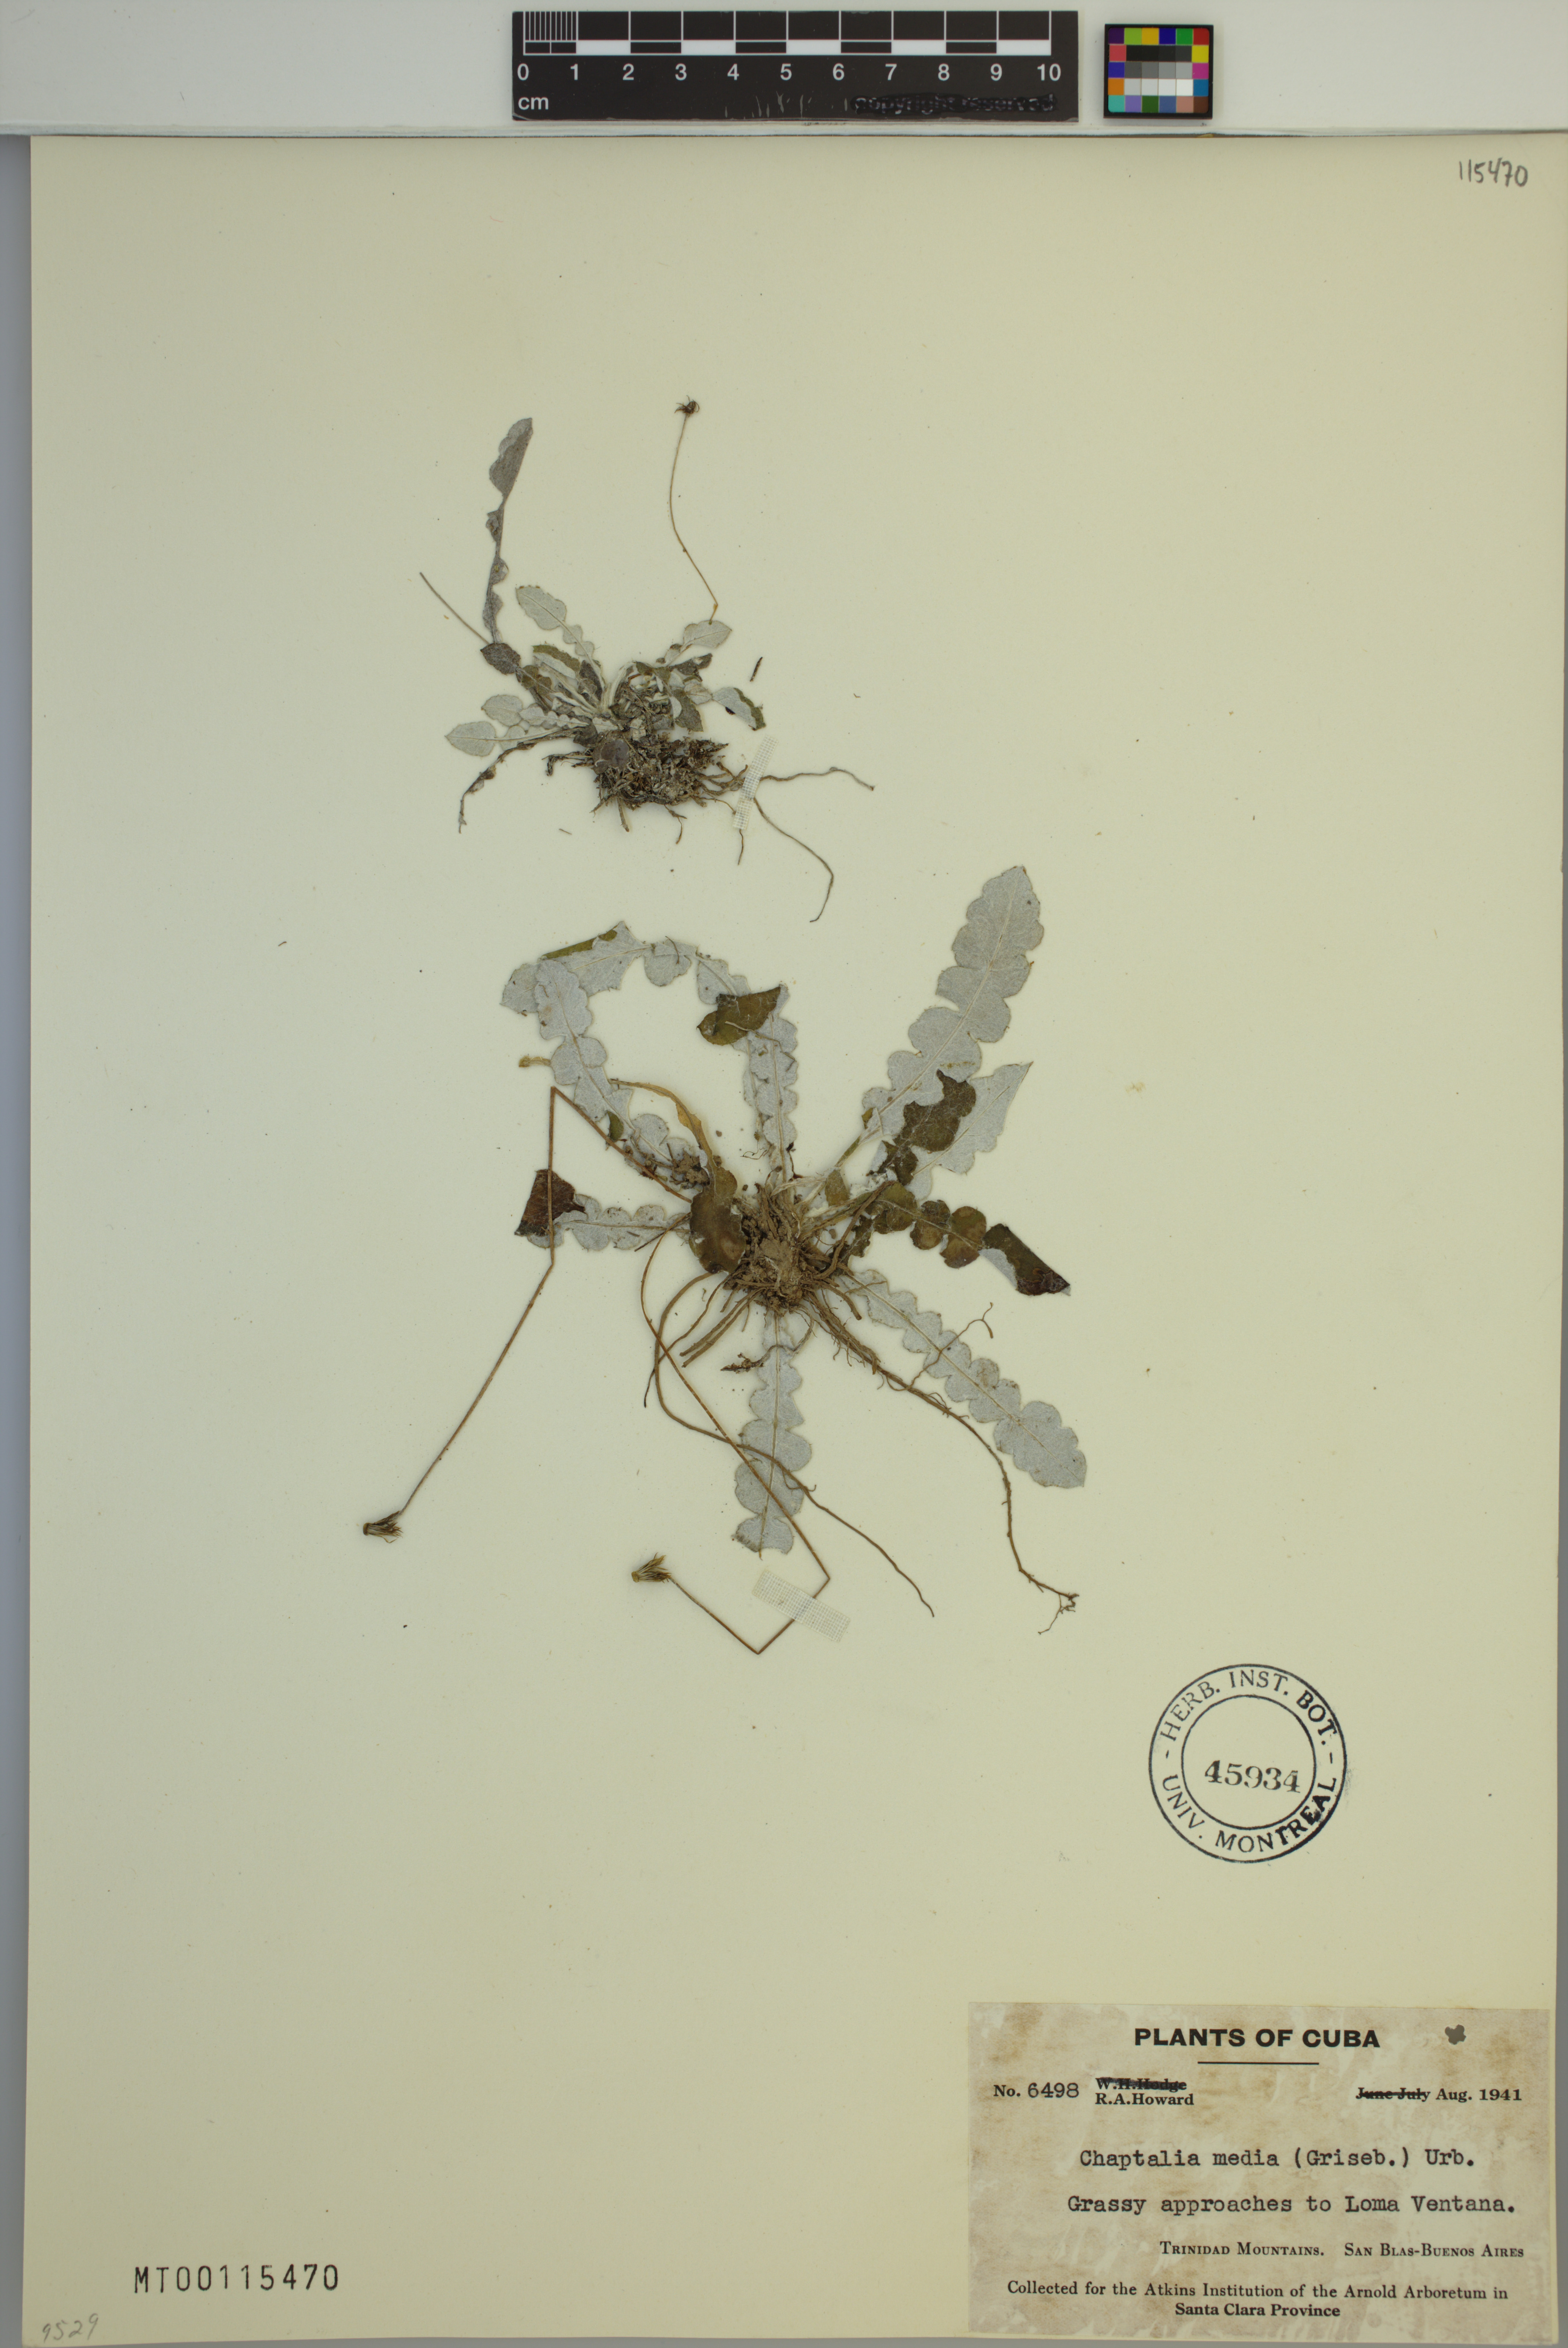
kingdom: Plantae
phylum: Tracheophyta
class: Magnoliopsida
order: Asterales
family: Asteraceae
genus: Chaptalia
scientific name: Chaptalia media
